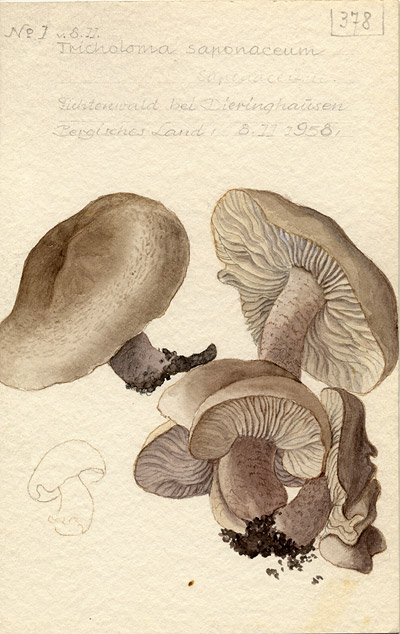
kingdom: Fungi
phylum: Basidiomycota
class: Agaricomycetes
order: Agaricales
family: Tricholomataceae
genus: Tricholoma
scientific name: Tricholoma saponaceum
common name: Soapy trich
